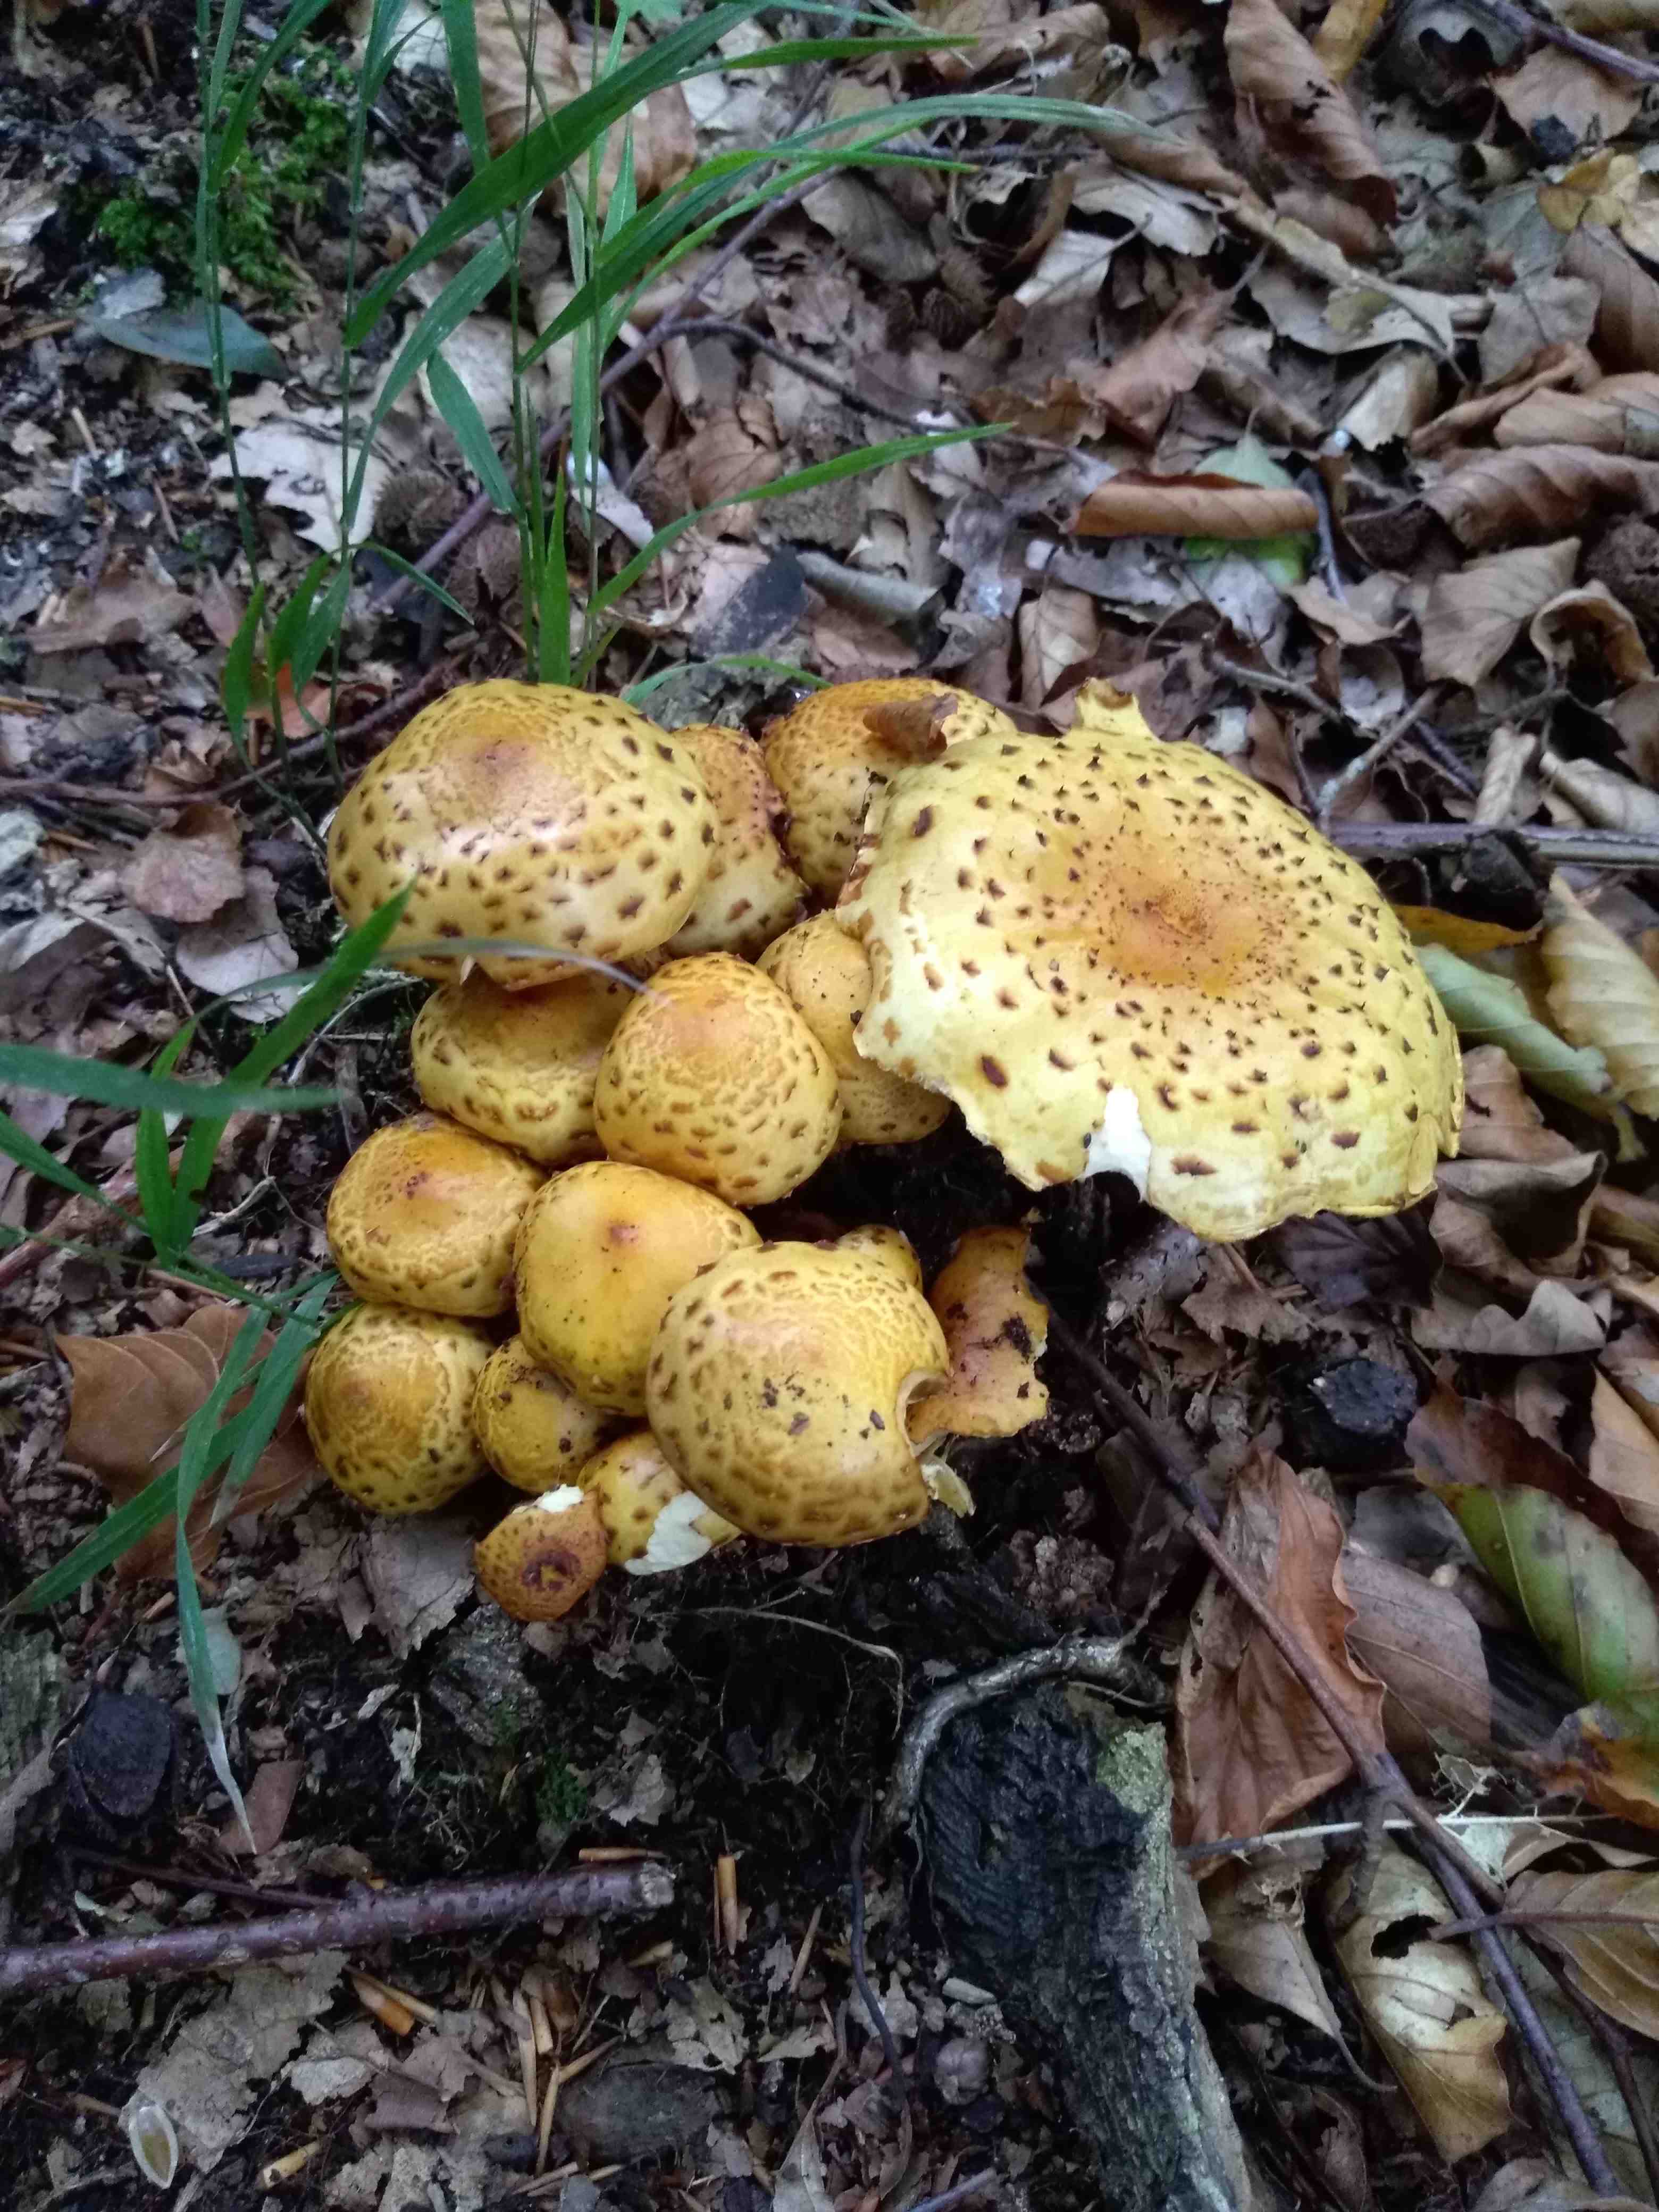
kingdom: Fungi
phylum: Basidiomycota
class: Agaricomycetes
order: Agaricales
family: Strophariaceae
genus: Pholiota
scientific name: Pholiota jahnii
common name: slimet skælhat
